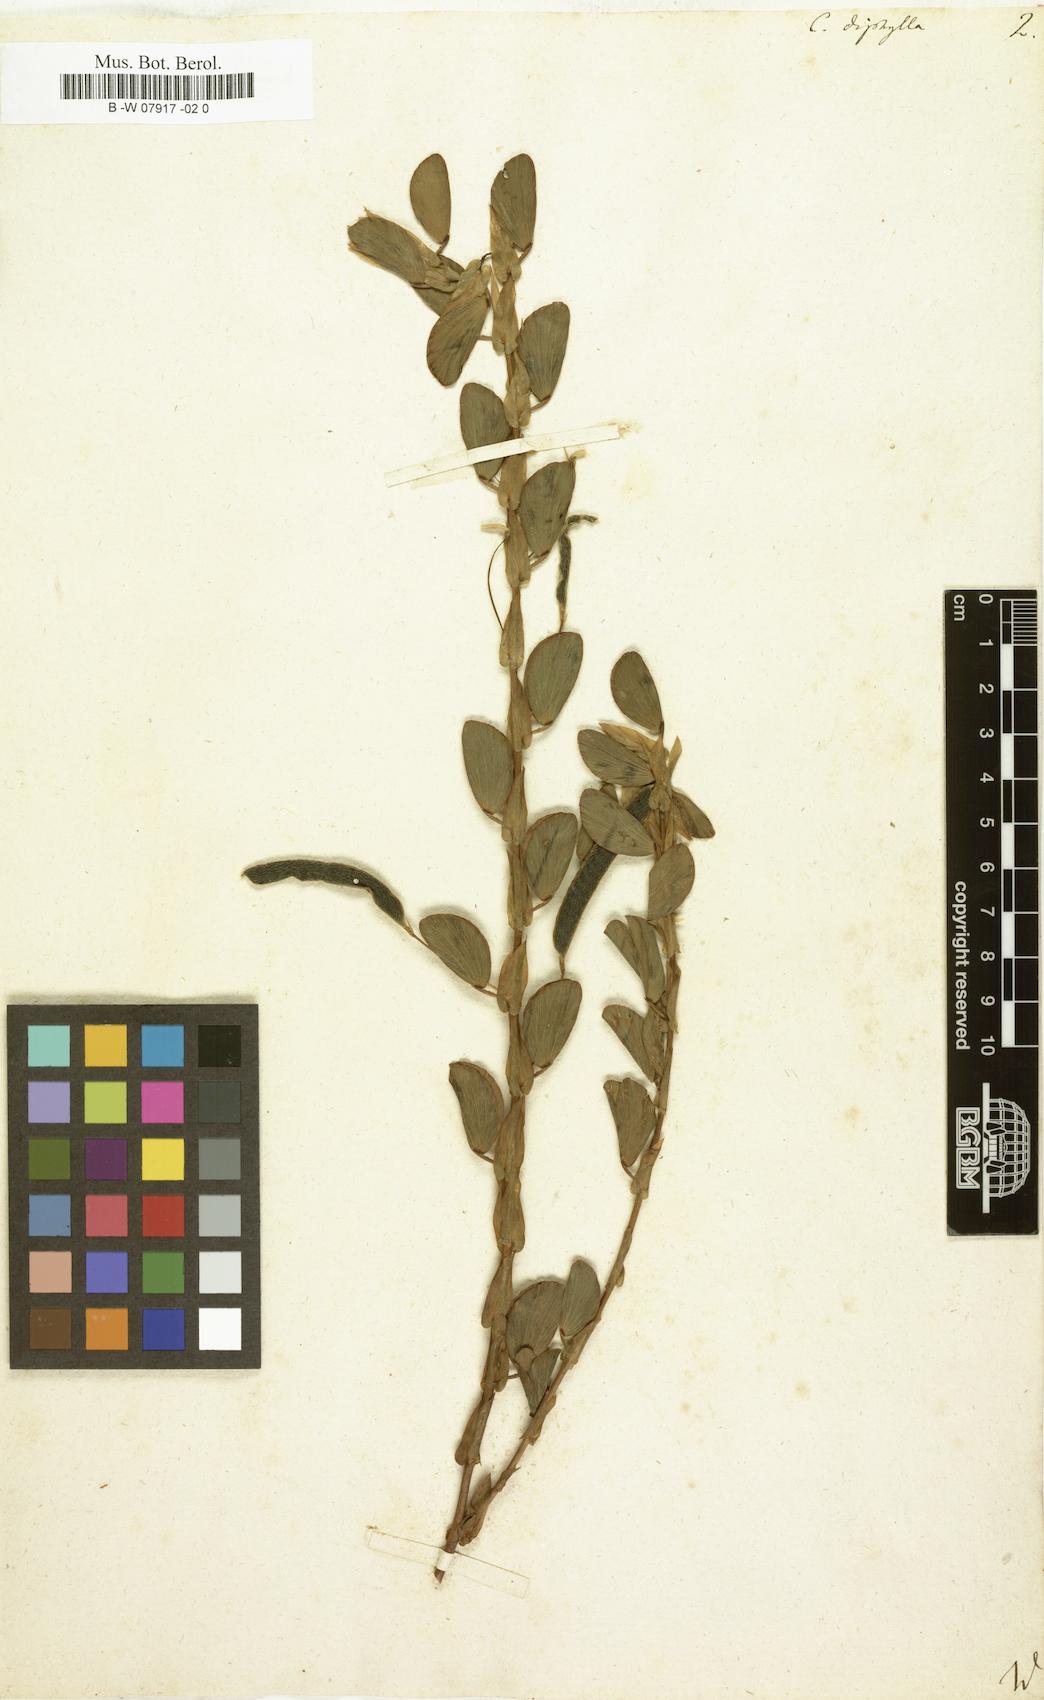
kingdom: Plantae
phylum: Tracheophyta
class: Magnoliopsida
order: Fabales
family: Fabaceae
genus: Chamaecrista
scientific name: Chamaecrista diphylla
